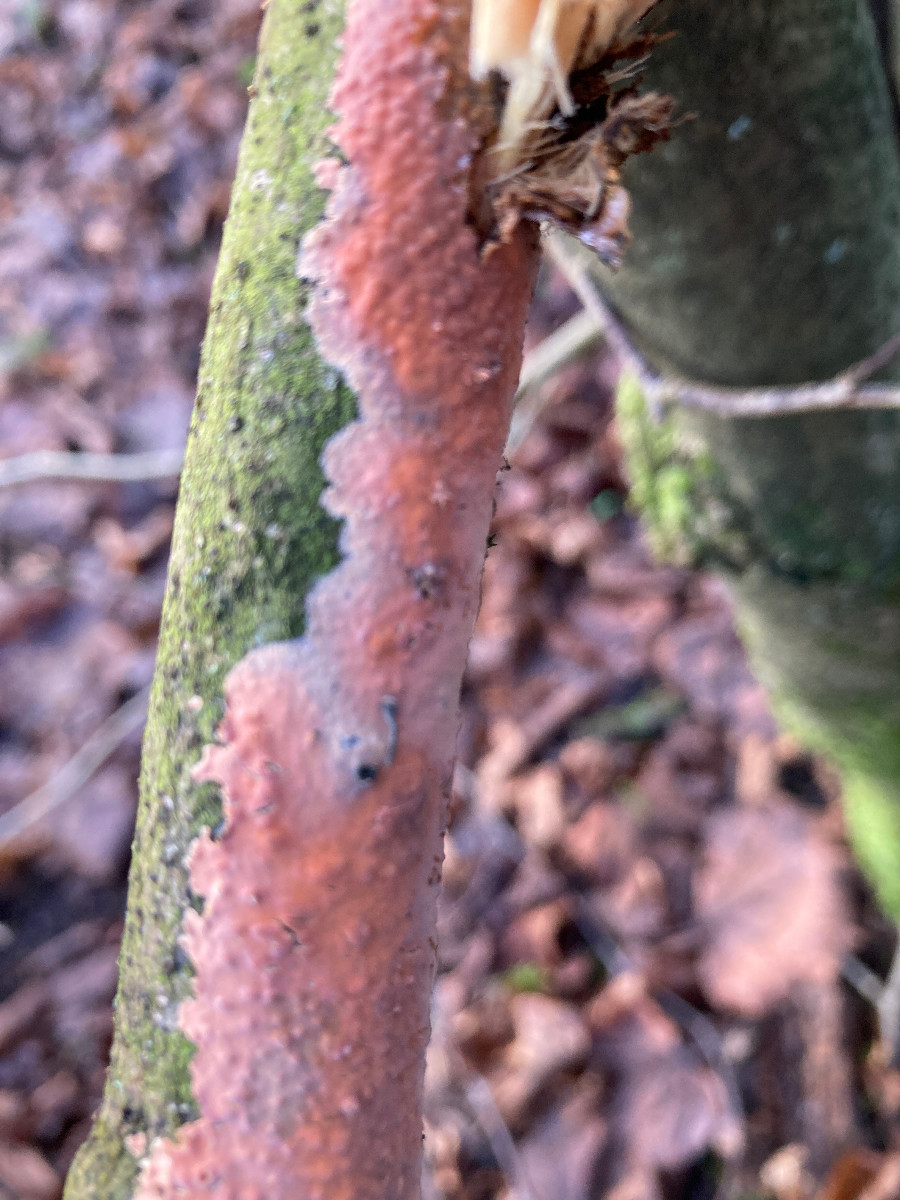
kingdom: Fungi
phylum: Basidiomycota
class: Agaricomycetes
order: Russulales
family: Peniophoraceae
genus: Peniophora
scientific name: Peniophora incarnata
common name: laksefarvet voksskind
